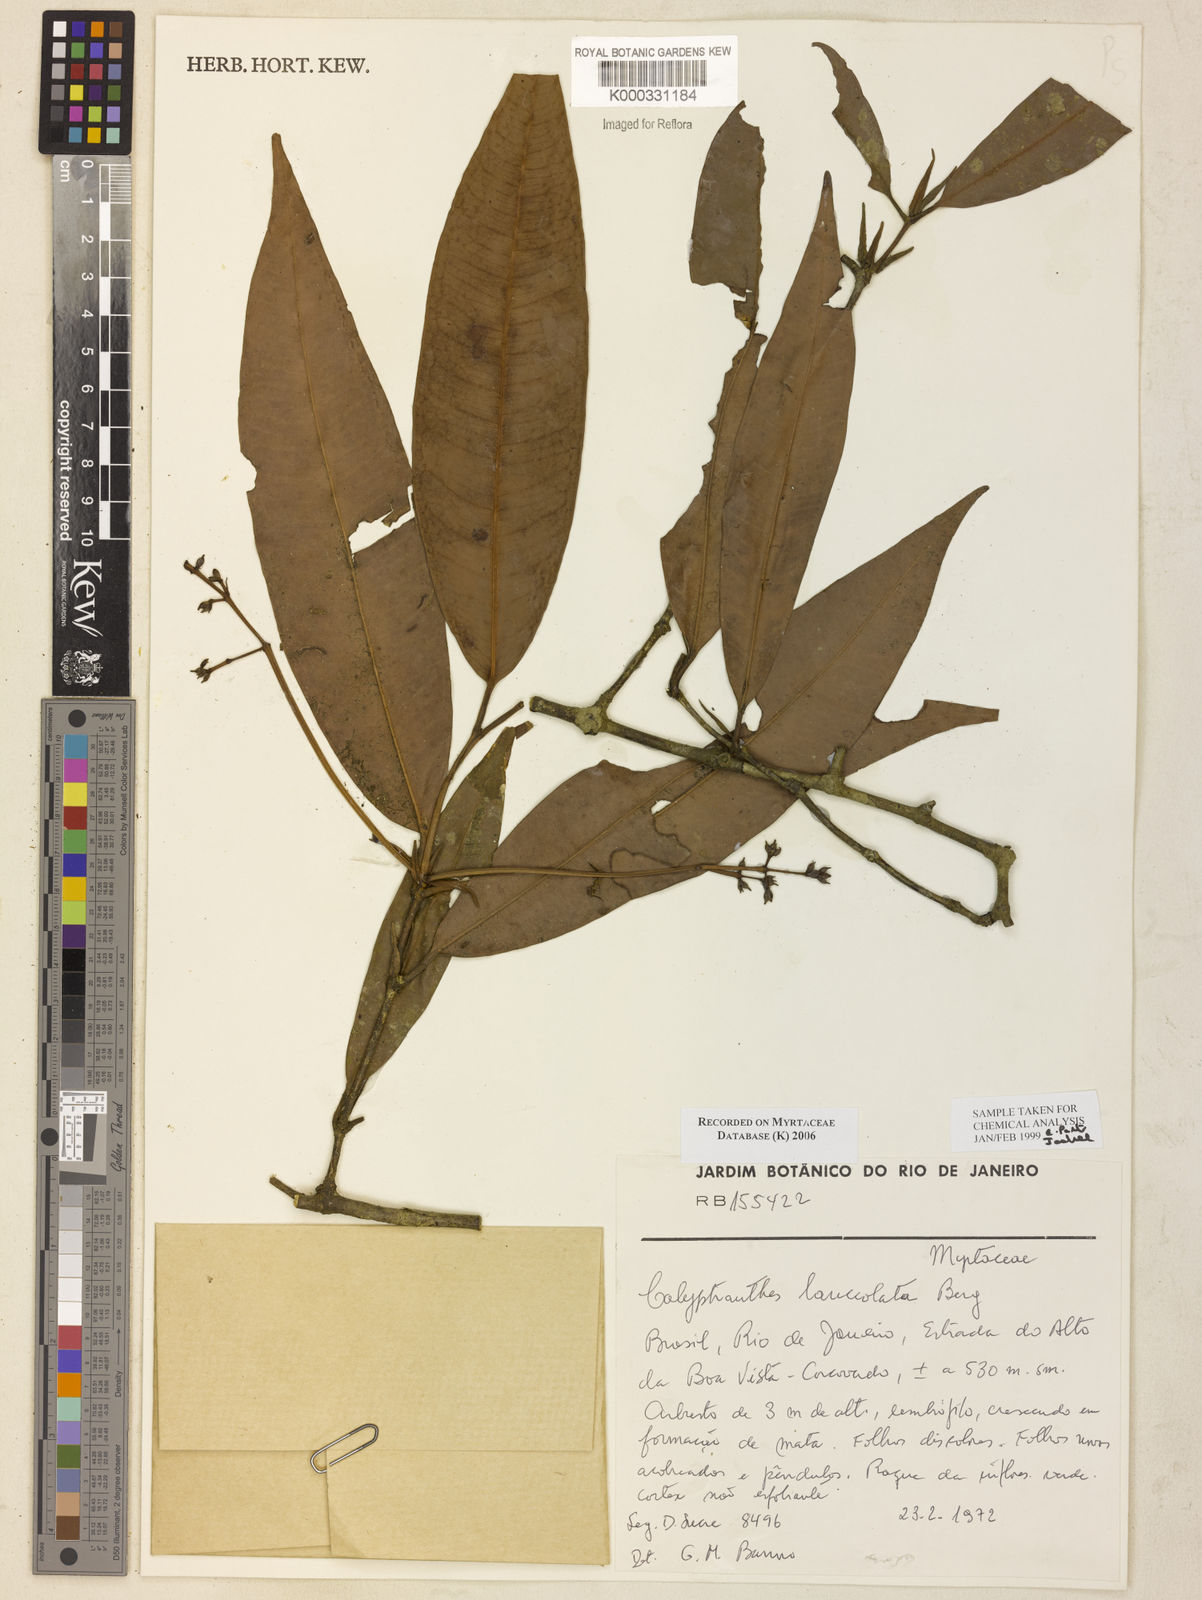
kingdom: Plantae
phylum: Tracheophyta
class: Magnoliopsida
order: Myrtales
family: Myrtaceae
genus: Myrcia
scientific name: Myrcia lonchophylla
